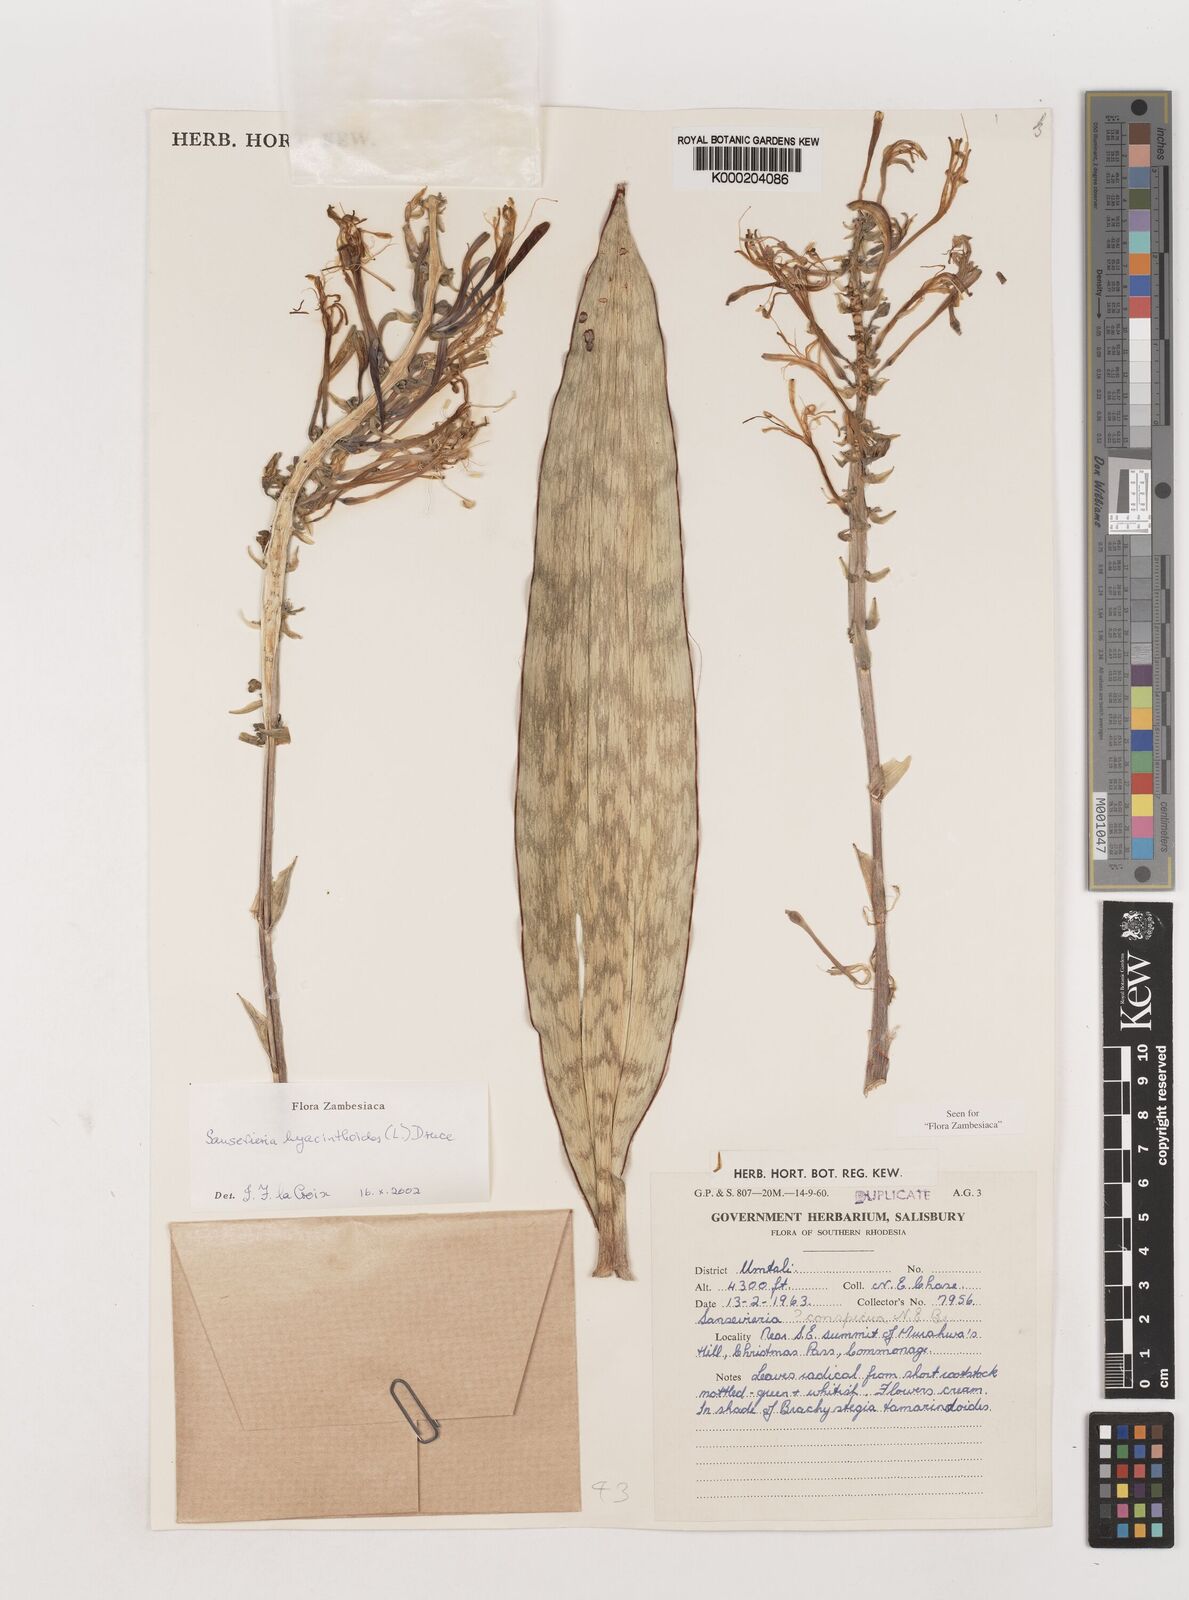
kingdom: Plantae
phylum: Tracheophyta
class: Liliopsida
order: Asparagales
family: Asparagaceae
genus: Dracaena
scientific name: Dracaena hyacinthoides
